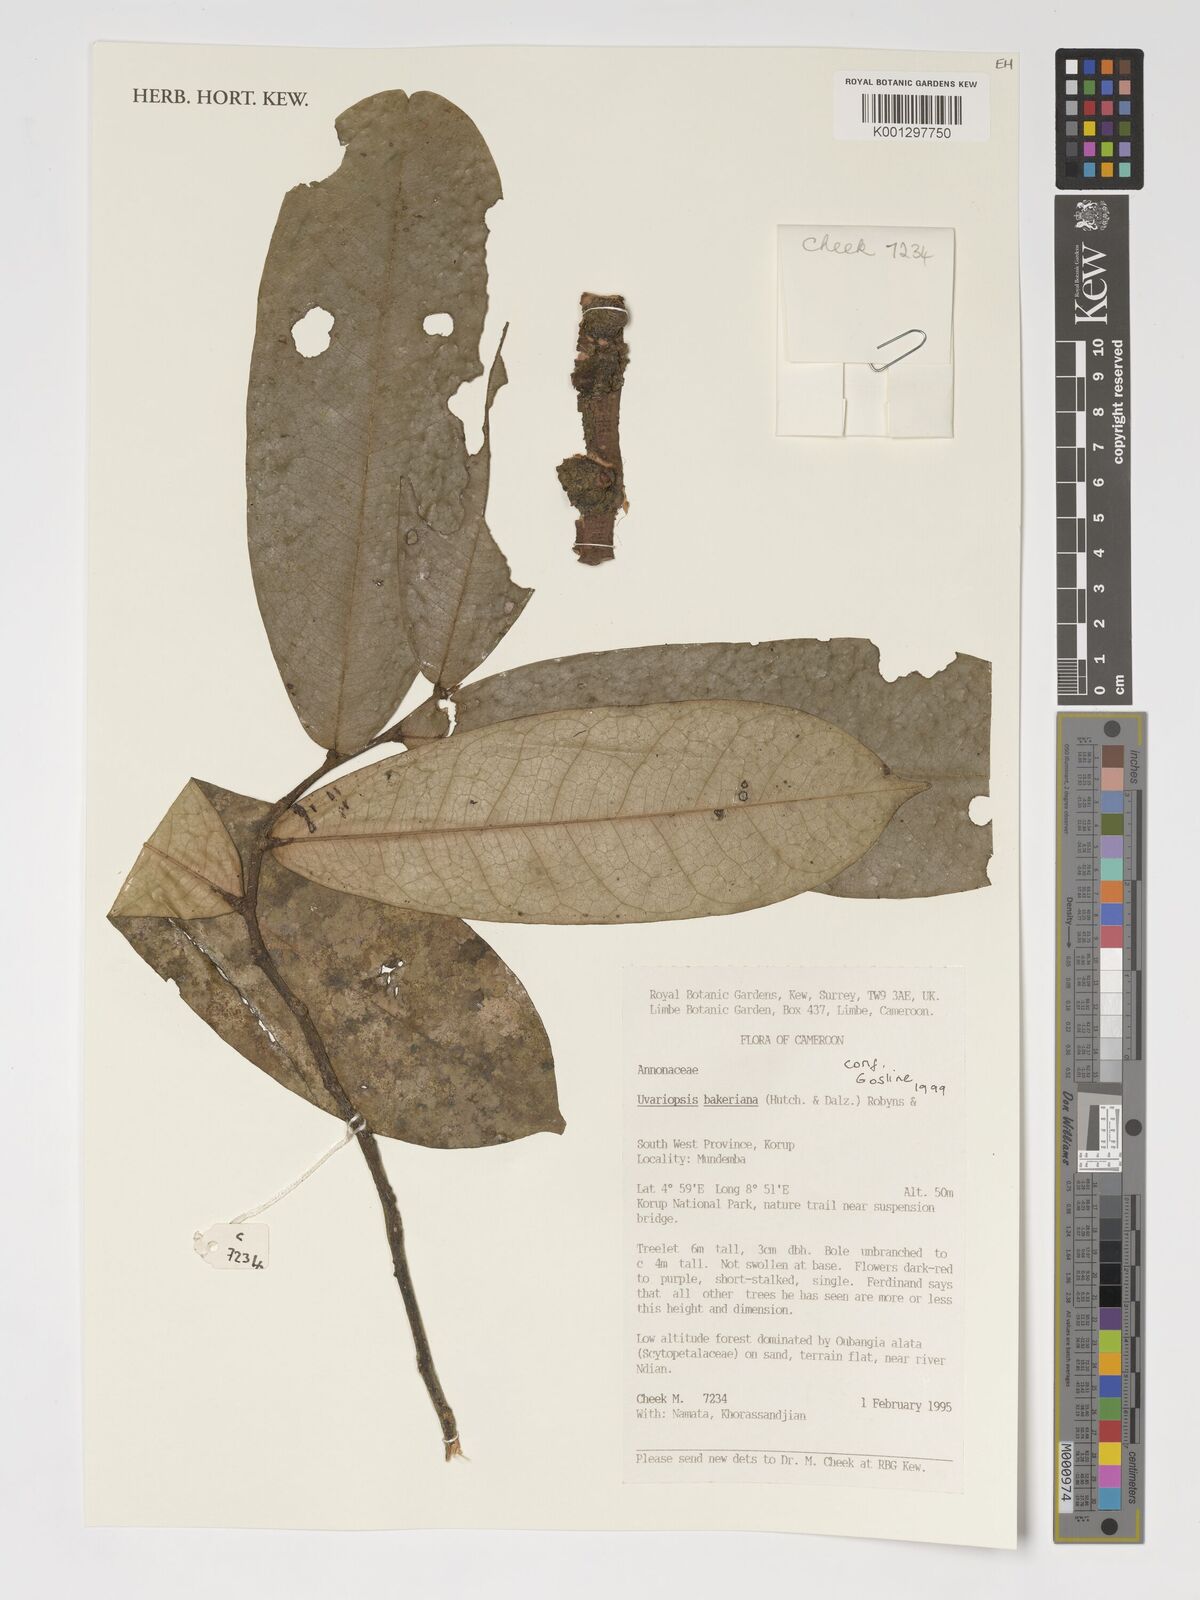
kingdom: Plantae
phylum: Tracheophyta
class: Magnoliopsida
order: Magnoliales
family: Annonaceae
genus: Uvariopsis
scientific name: Uvariopsis bakeriana
